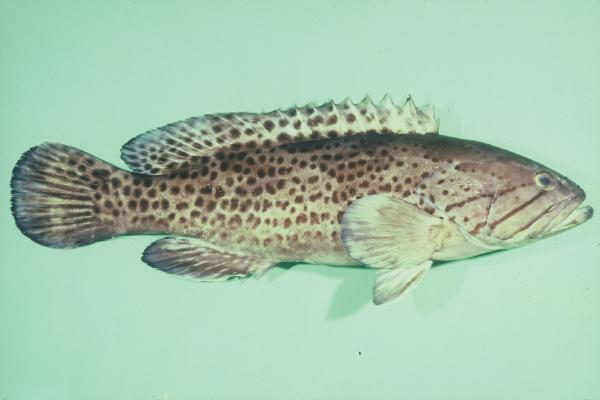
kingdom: Animalia
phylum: Chordata
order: Perciformes
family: Serranidae
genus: Epinephelus
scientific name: Epinephelus andersoni
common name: Catface rockcod
